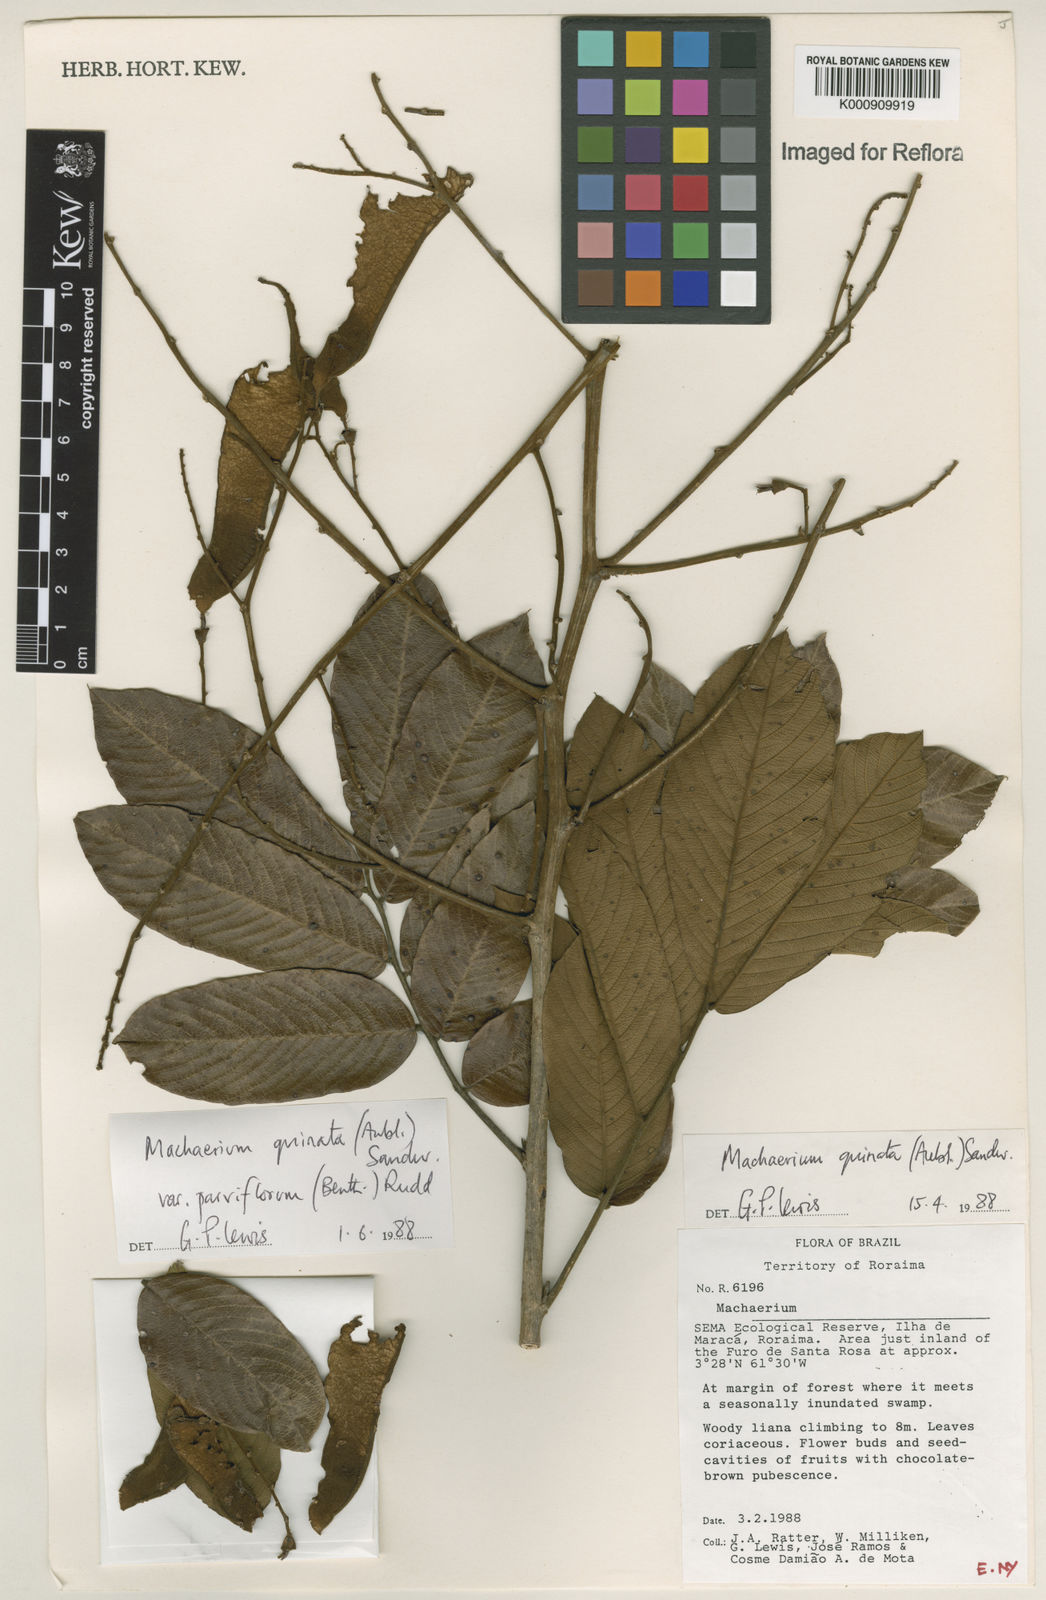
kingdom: Plantae
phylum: Tracheophyta
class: Magnoliopsida
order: Fabales
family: Fabaceae
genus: Machaerium
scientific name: Machaerium quinata
